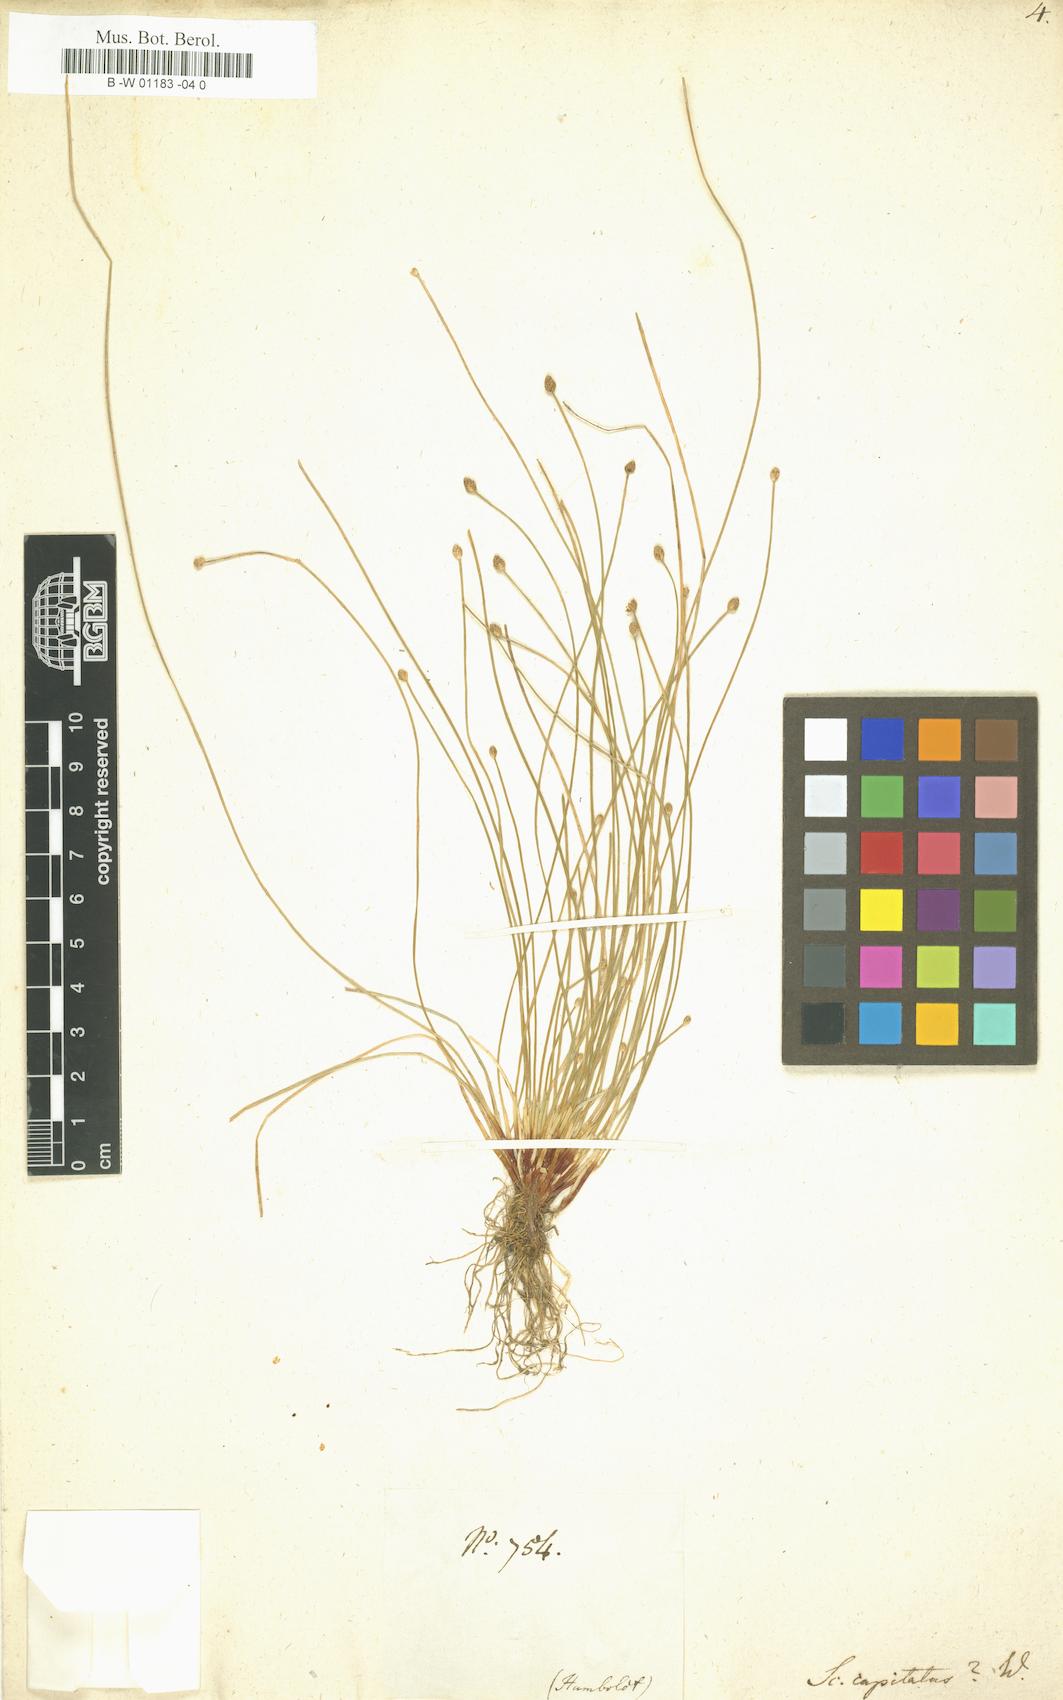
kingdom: Plantae
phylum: Tracheophyta
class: Liliopsida
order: Poales
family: Cyperaceae
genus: Eleocharis
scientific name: Eleocharis geniculata
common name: Canada spikesedge
